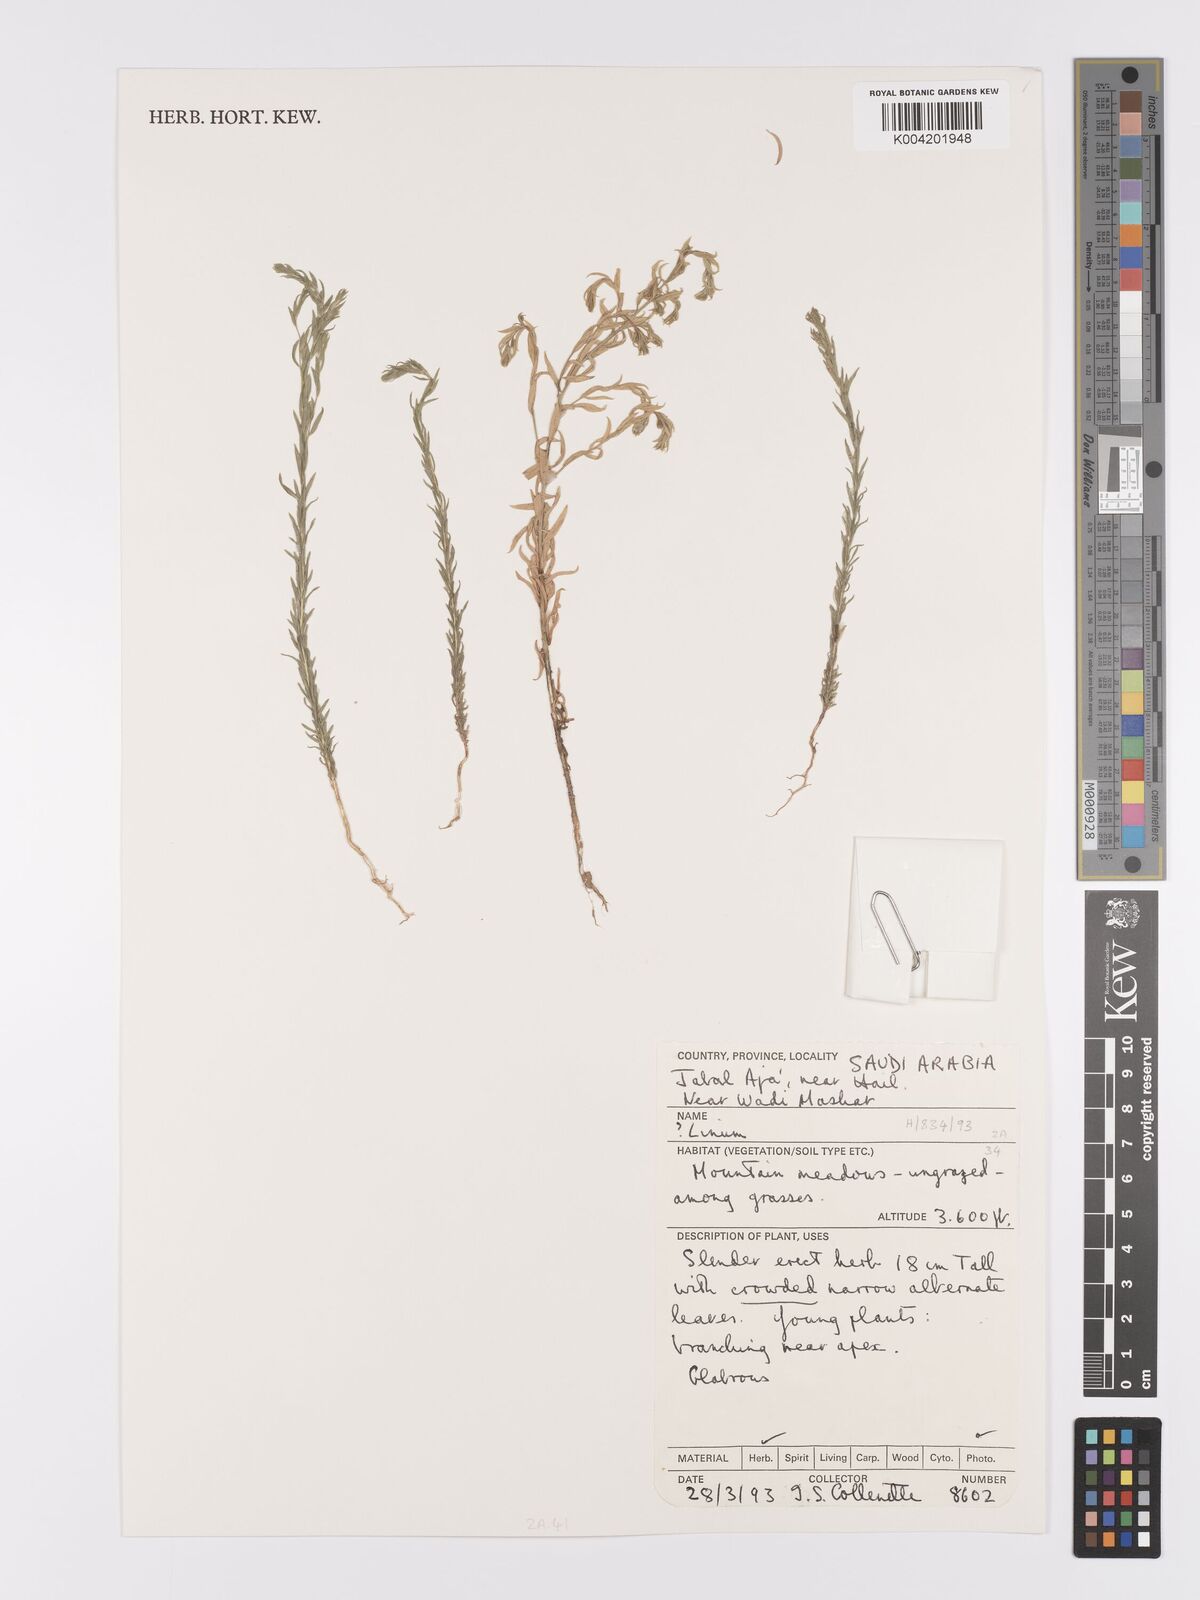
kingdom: Plantae
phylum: Tracheophyta
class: Magnoliopsida
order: Malpighiales
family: Linaceae
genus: Linum
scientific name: Linum
